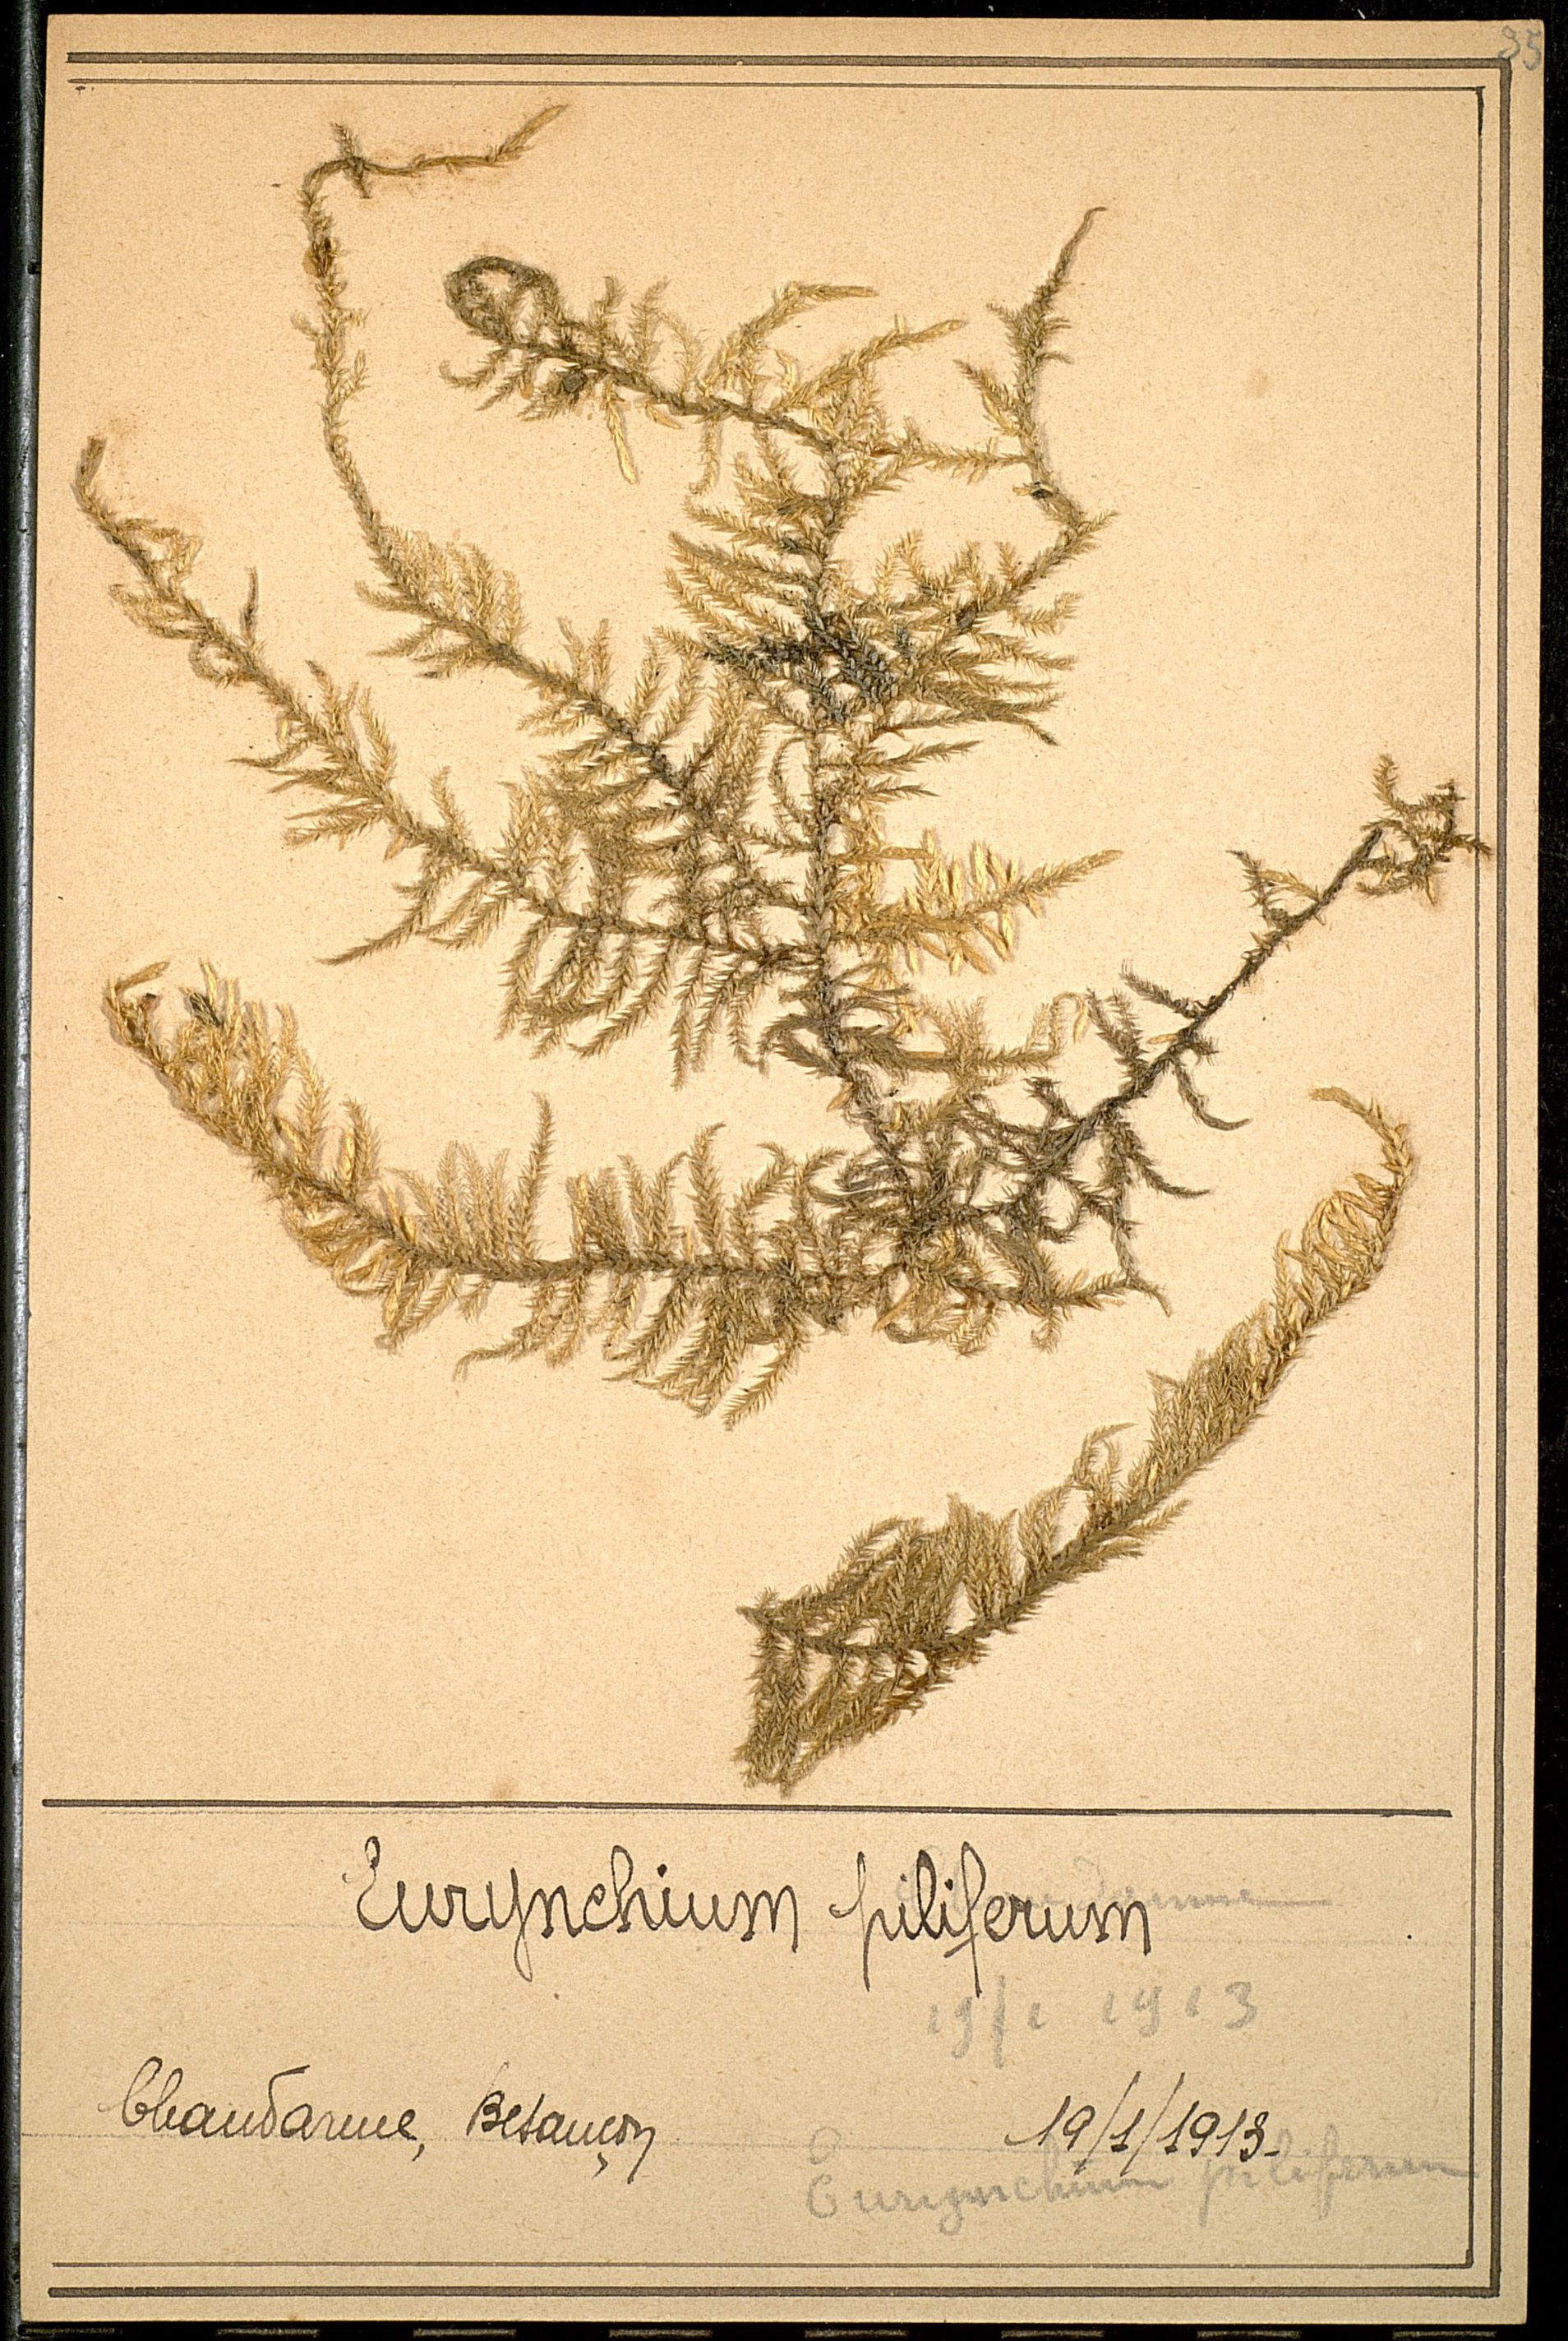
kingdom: Plantae
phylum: Bryophyta
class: Bryopsida
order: Hypnales
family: Brachytheciaceae
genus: Cirriphyllum
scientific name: Cirriphyllum piliferum
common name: Hair-pointed moss
